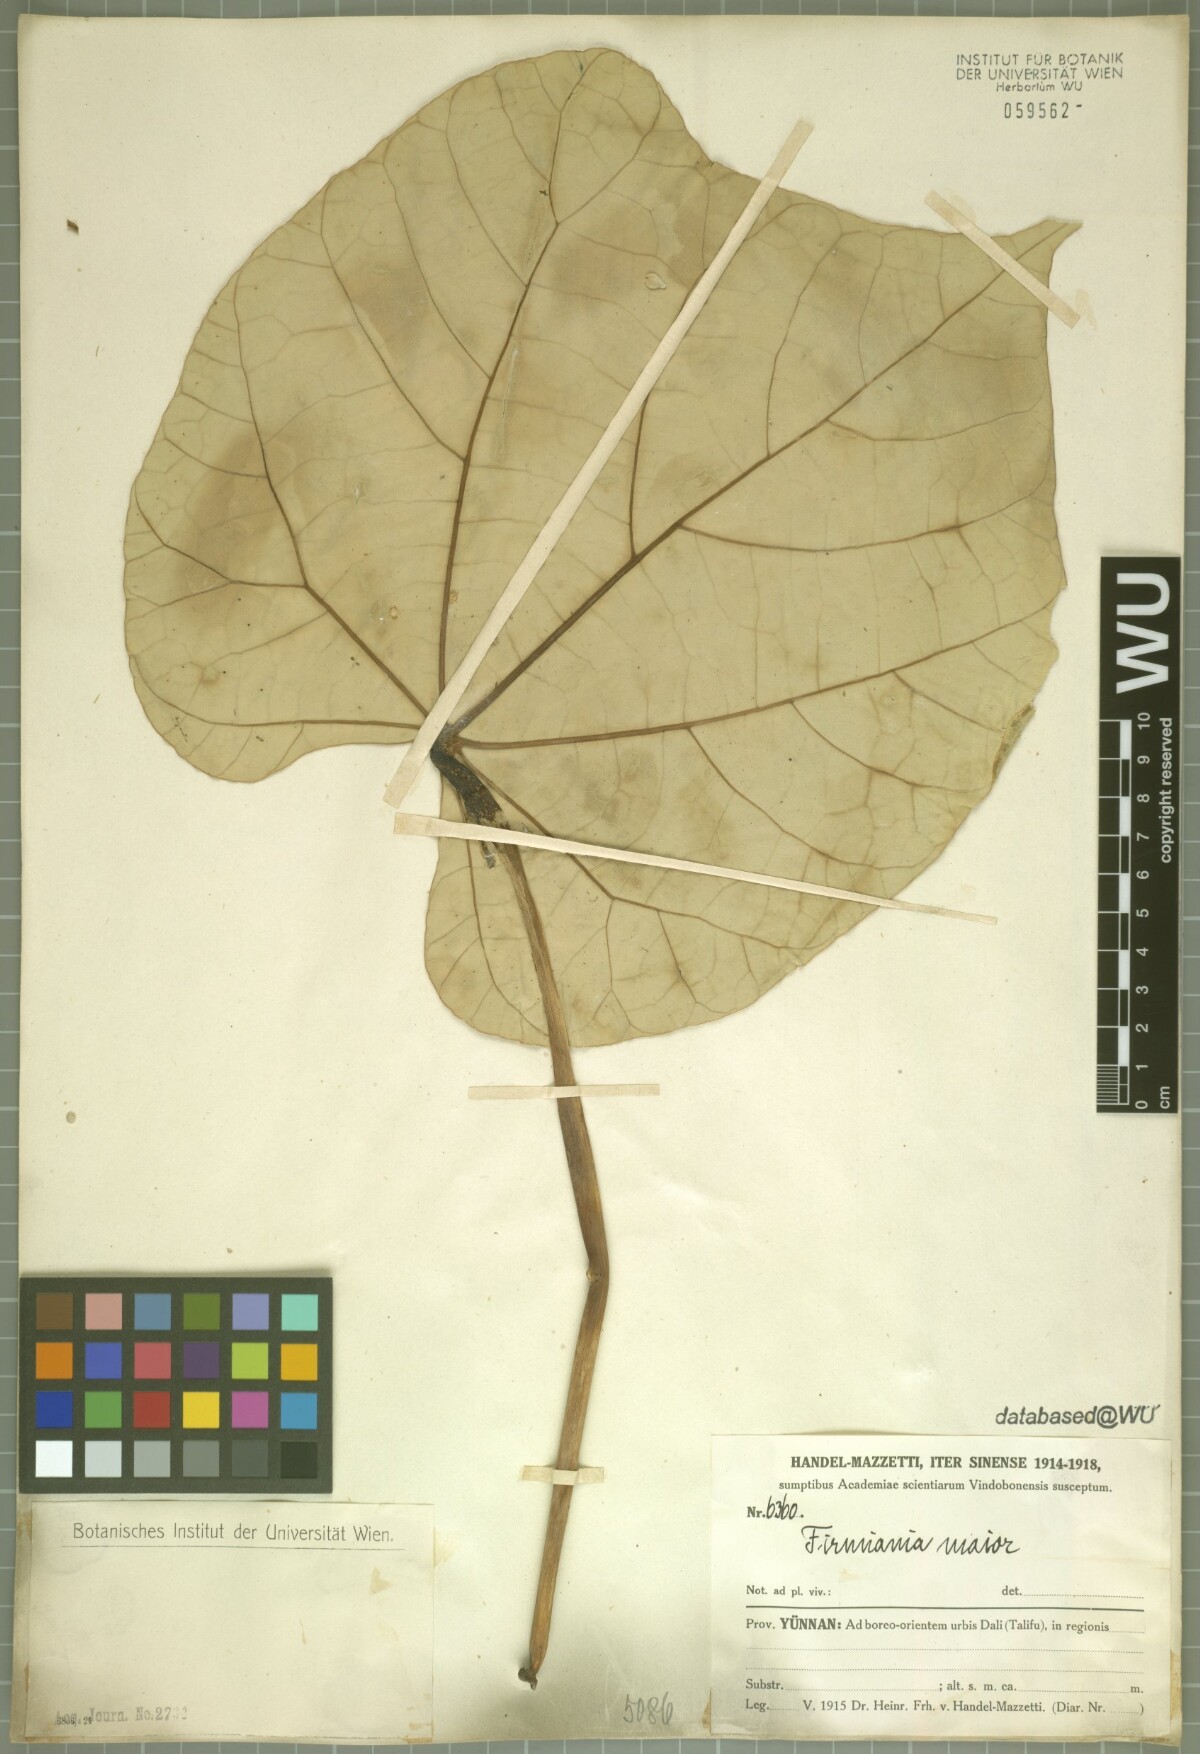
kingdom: Plantae
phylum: Tracheophyta
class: Magnoliopsida
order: Malvales
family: Malvaceae
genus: Firmiana
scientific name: Firmiana major
